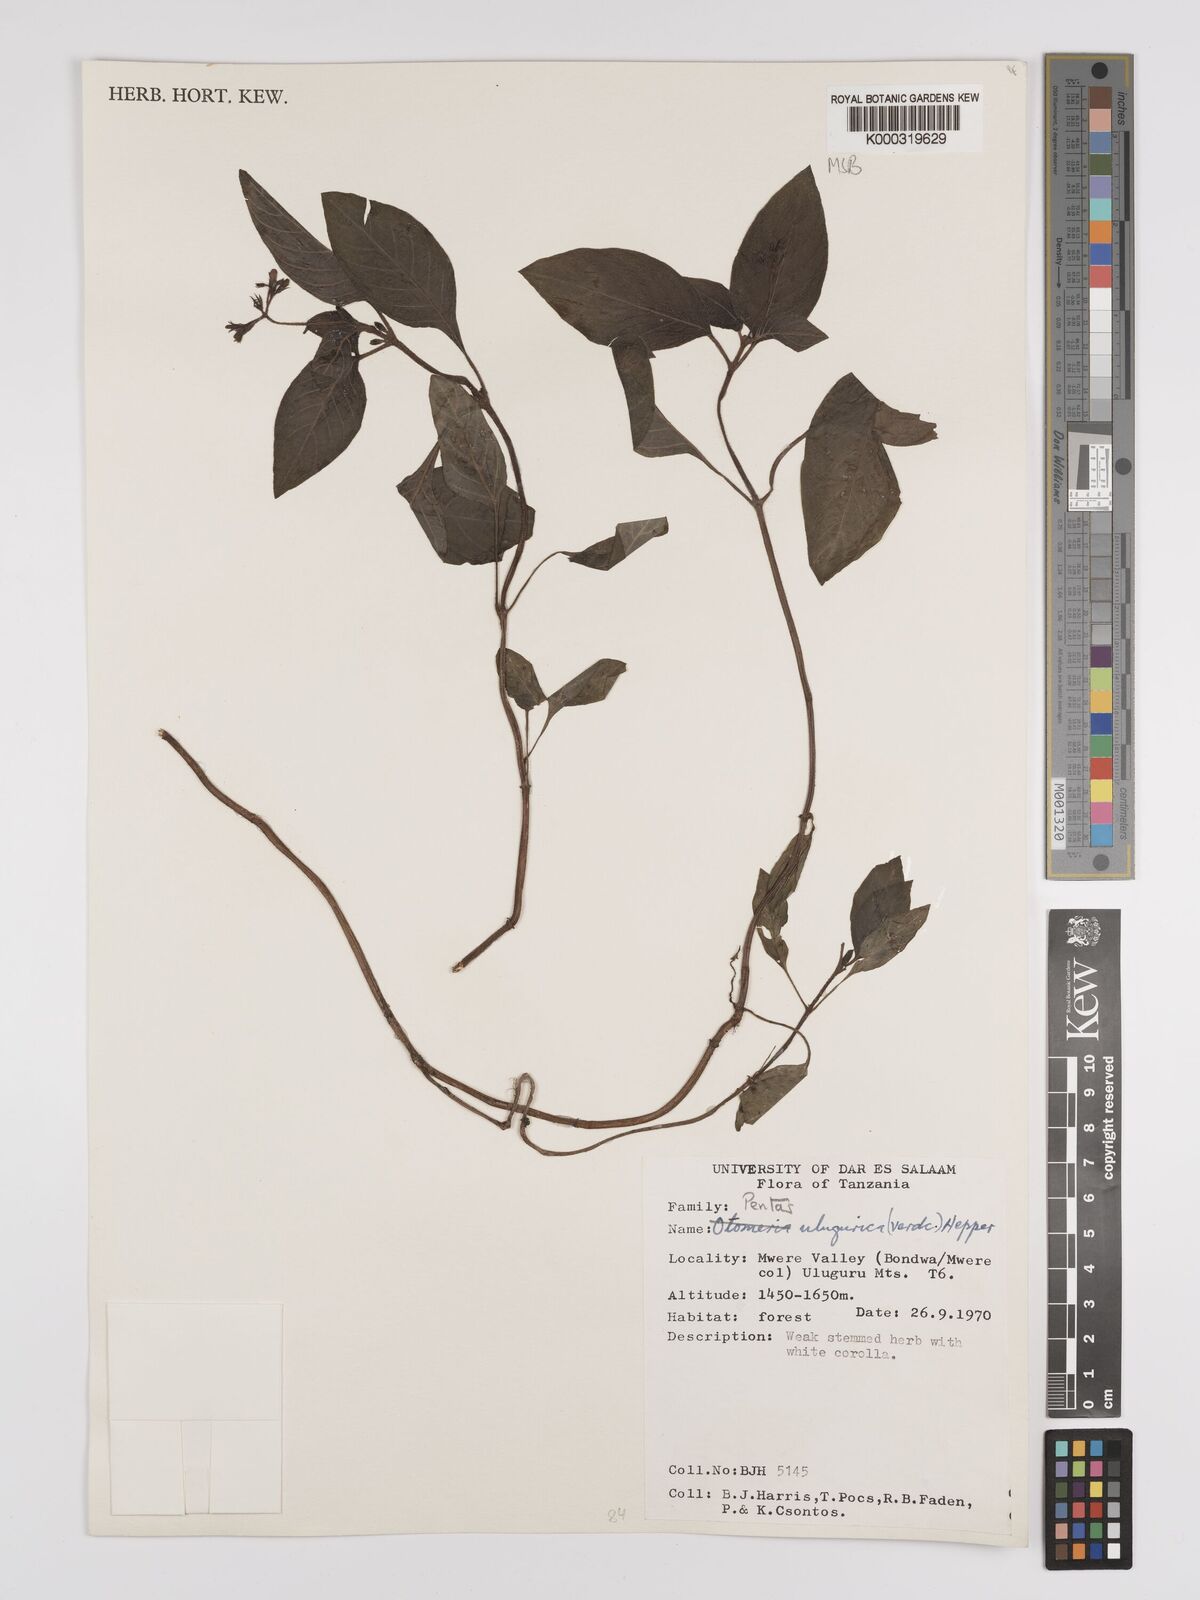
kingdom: Plantae
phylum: Tracheophyta
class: Magnoliopsida
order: Gentianales
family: Rubiaceae
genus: Phyllopentas
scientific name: Phyllopentas ulugurica
